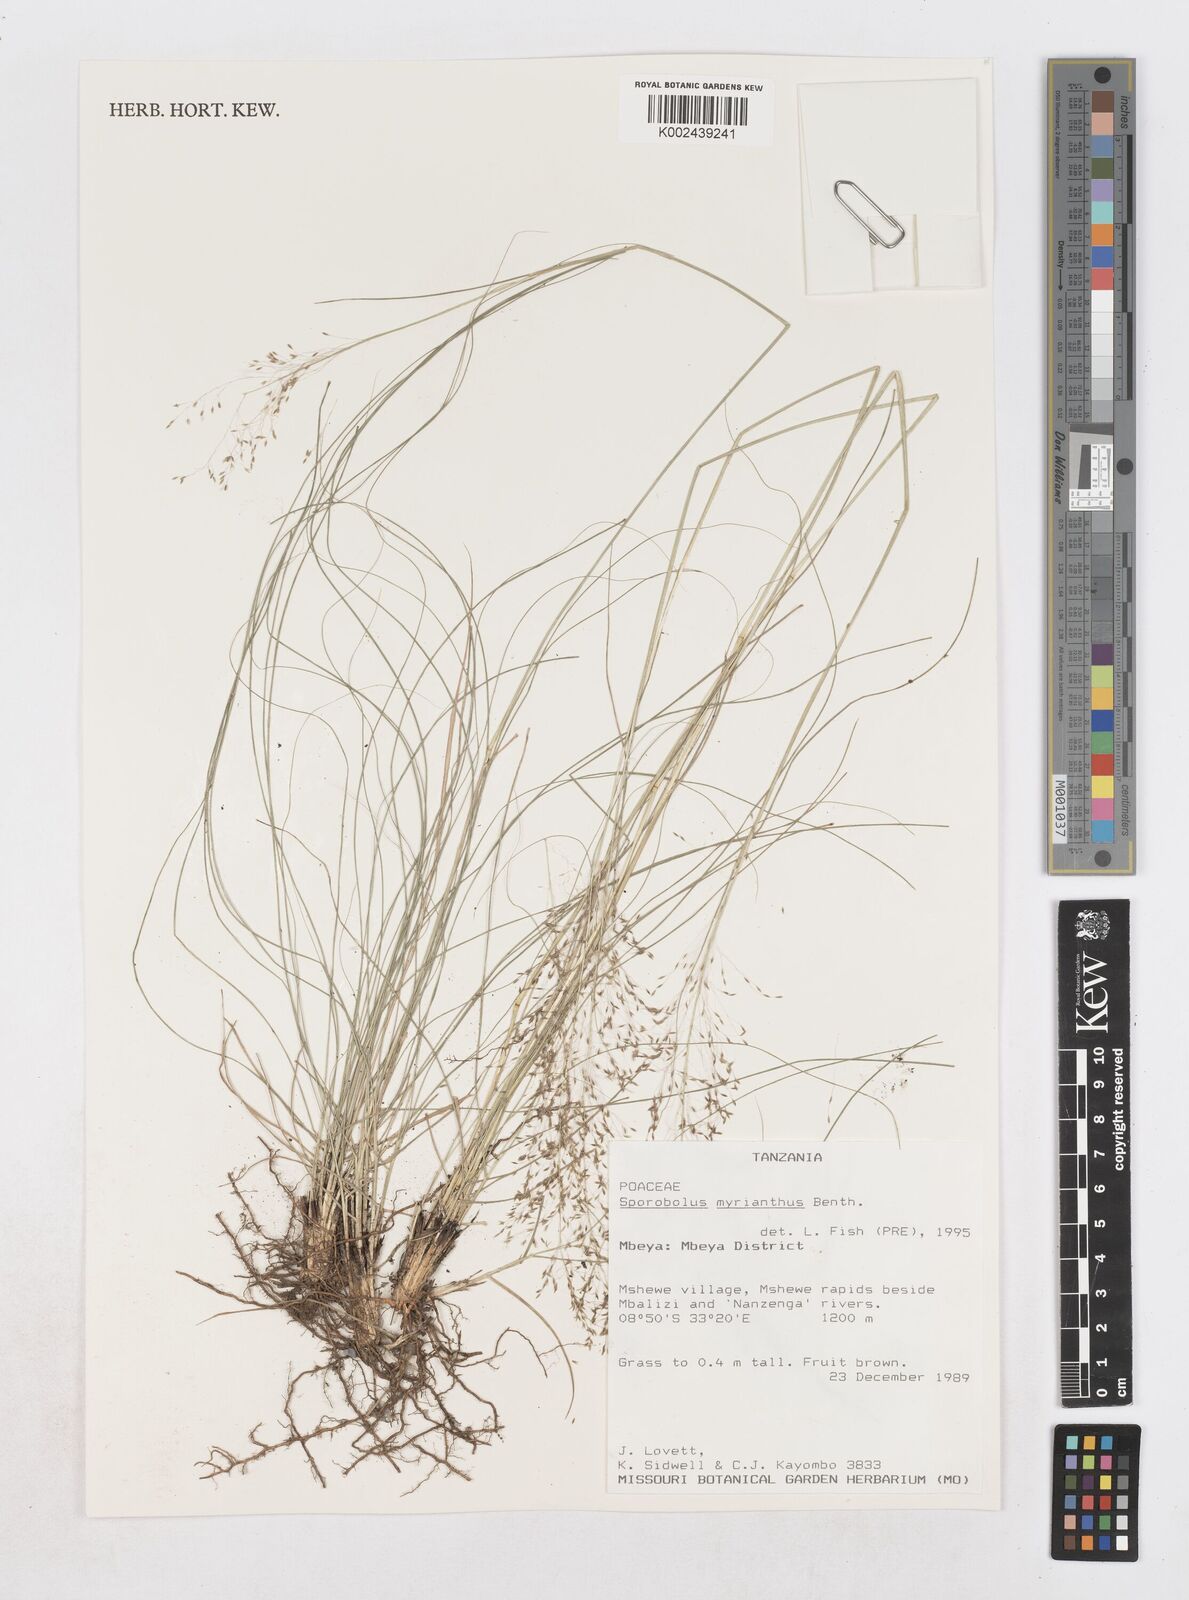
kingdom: Plantae
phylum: Tracheophyta
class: Liliopsida
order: Poales
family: Poaceae
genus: Sporobolus
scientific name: Sporobolus myrianthus
